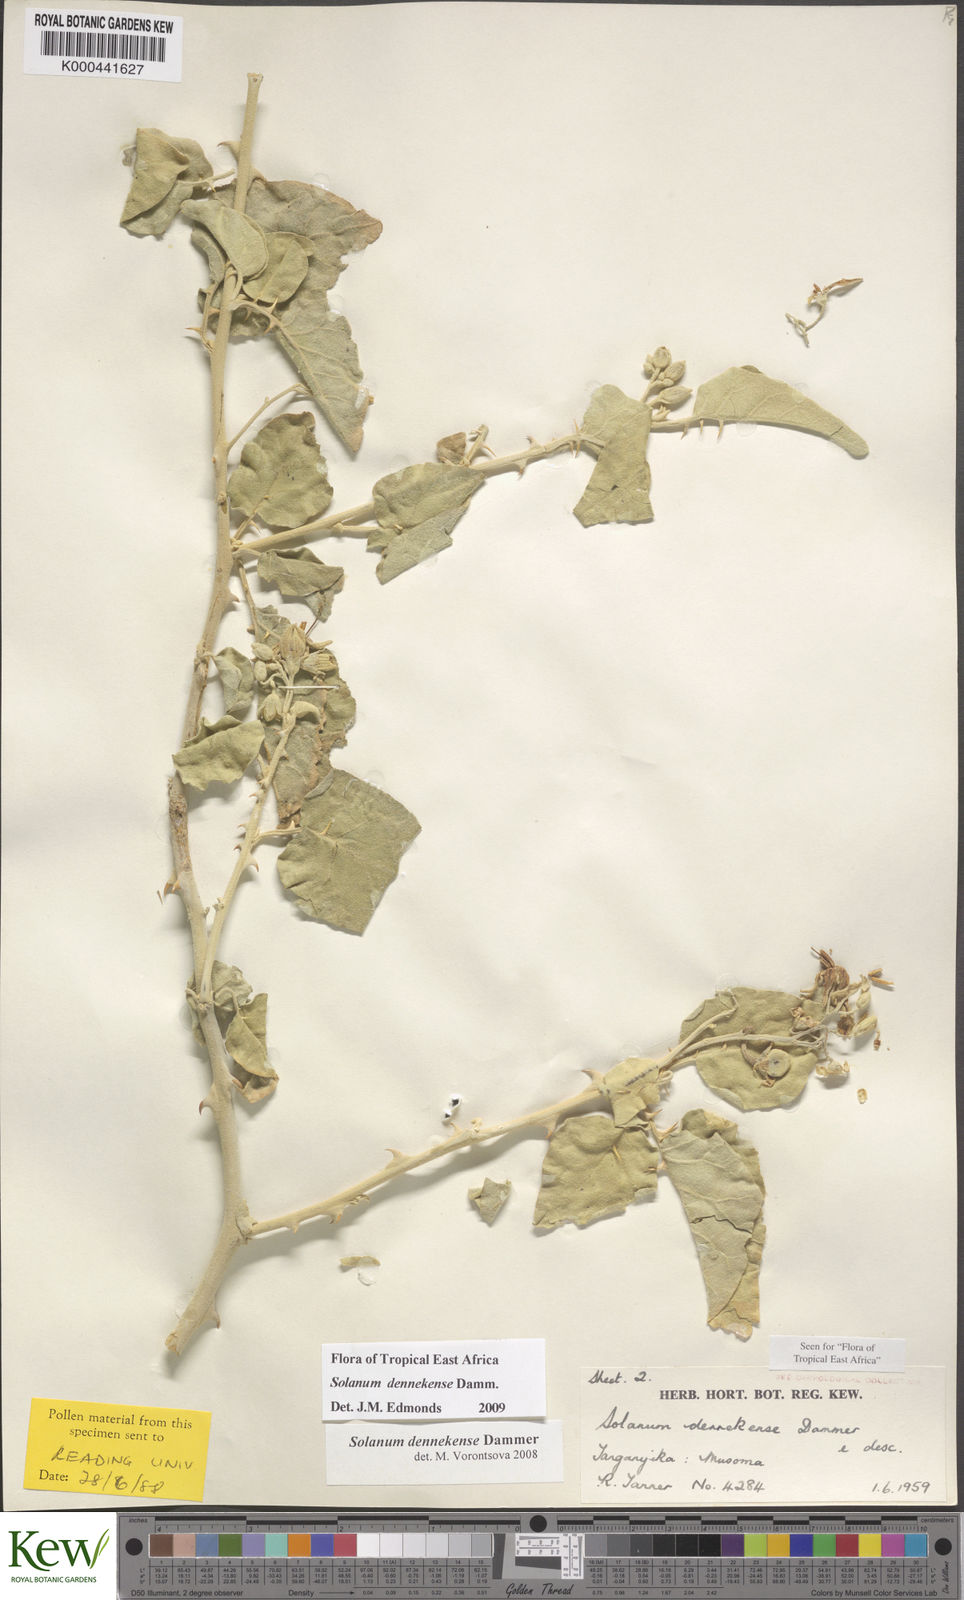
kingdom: Plantae
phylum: Tracheophyta
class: Magnoliopsida
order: Solanales
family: Solanaceae
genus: Solanum
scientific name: Solanum dennekense
